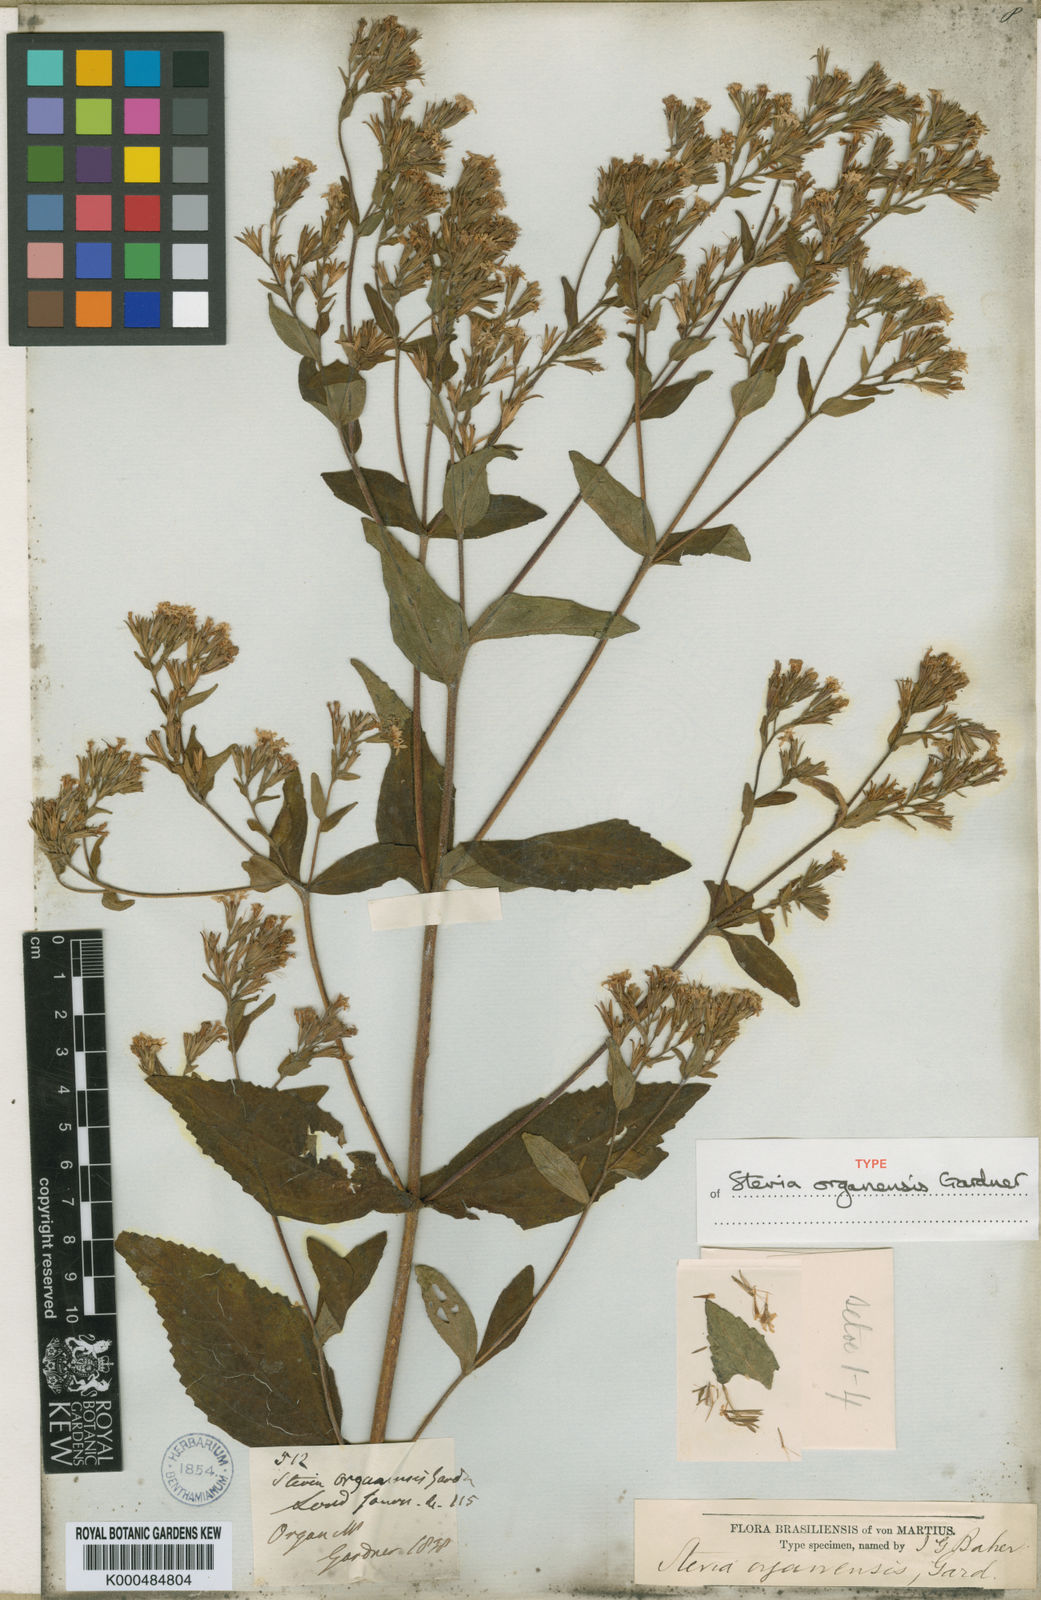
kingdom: Plantae
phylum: Tracheophyta
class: Magnoliopsida
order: Asterales
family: Asteraceae
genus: Stevia
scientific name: Stevia organensis
